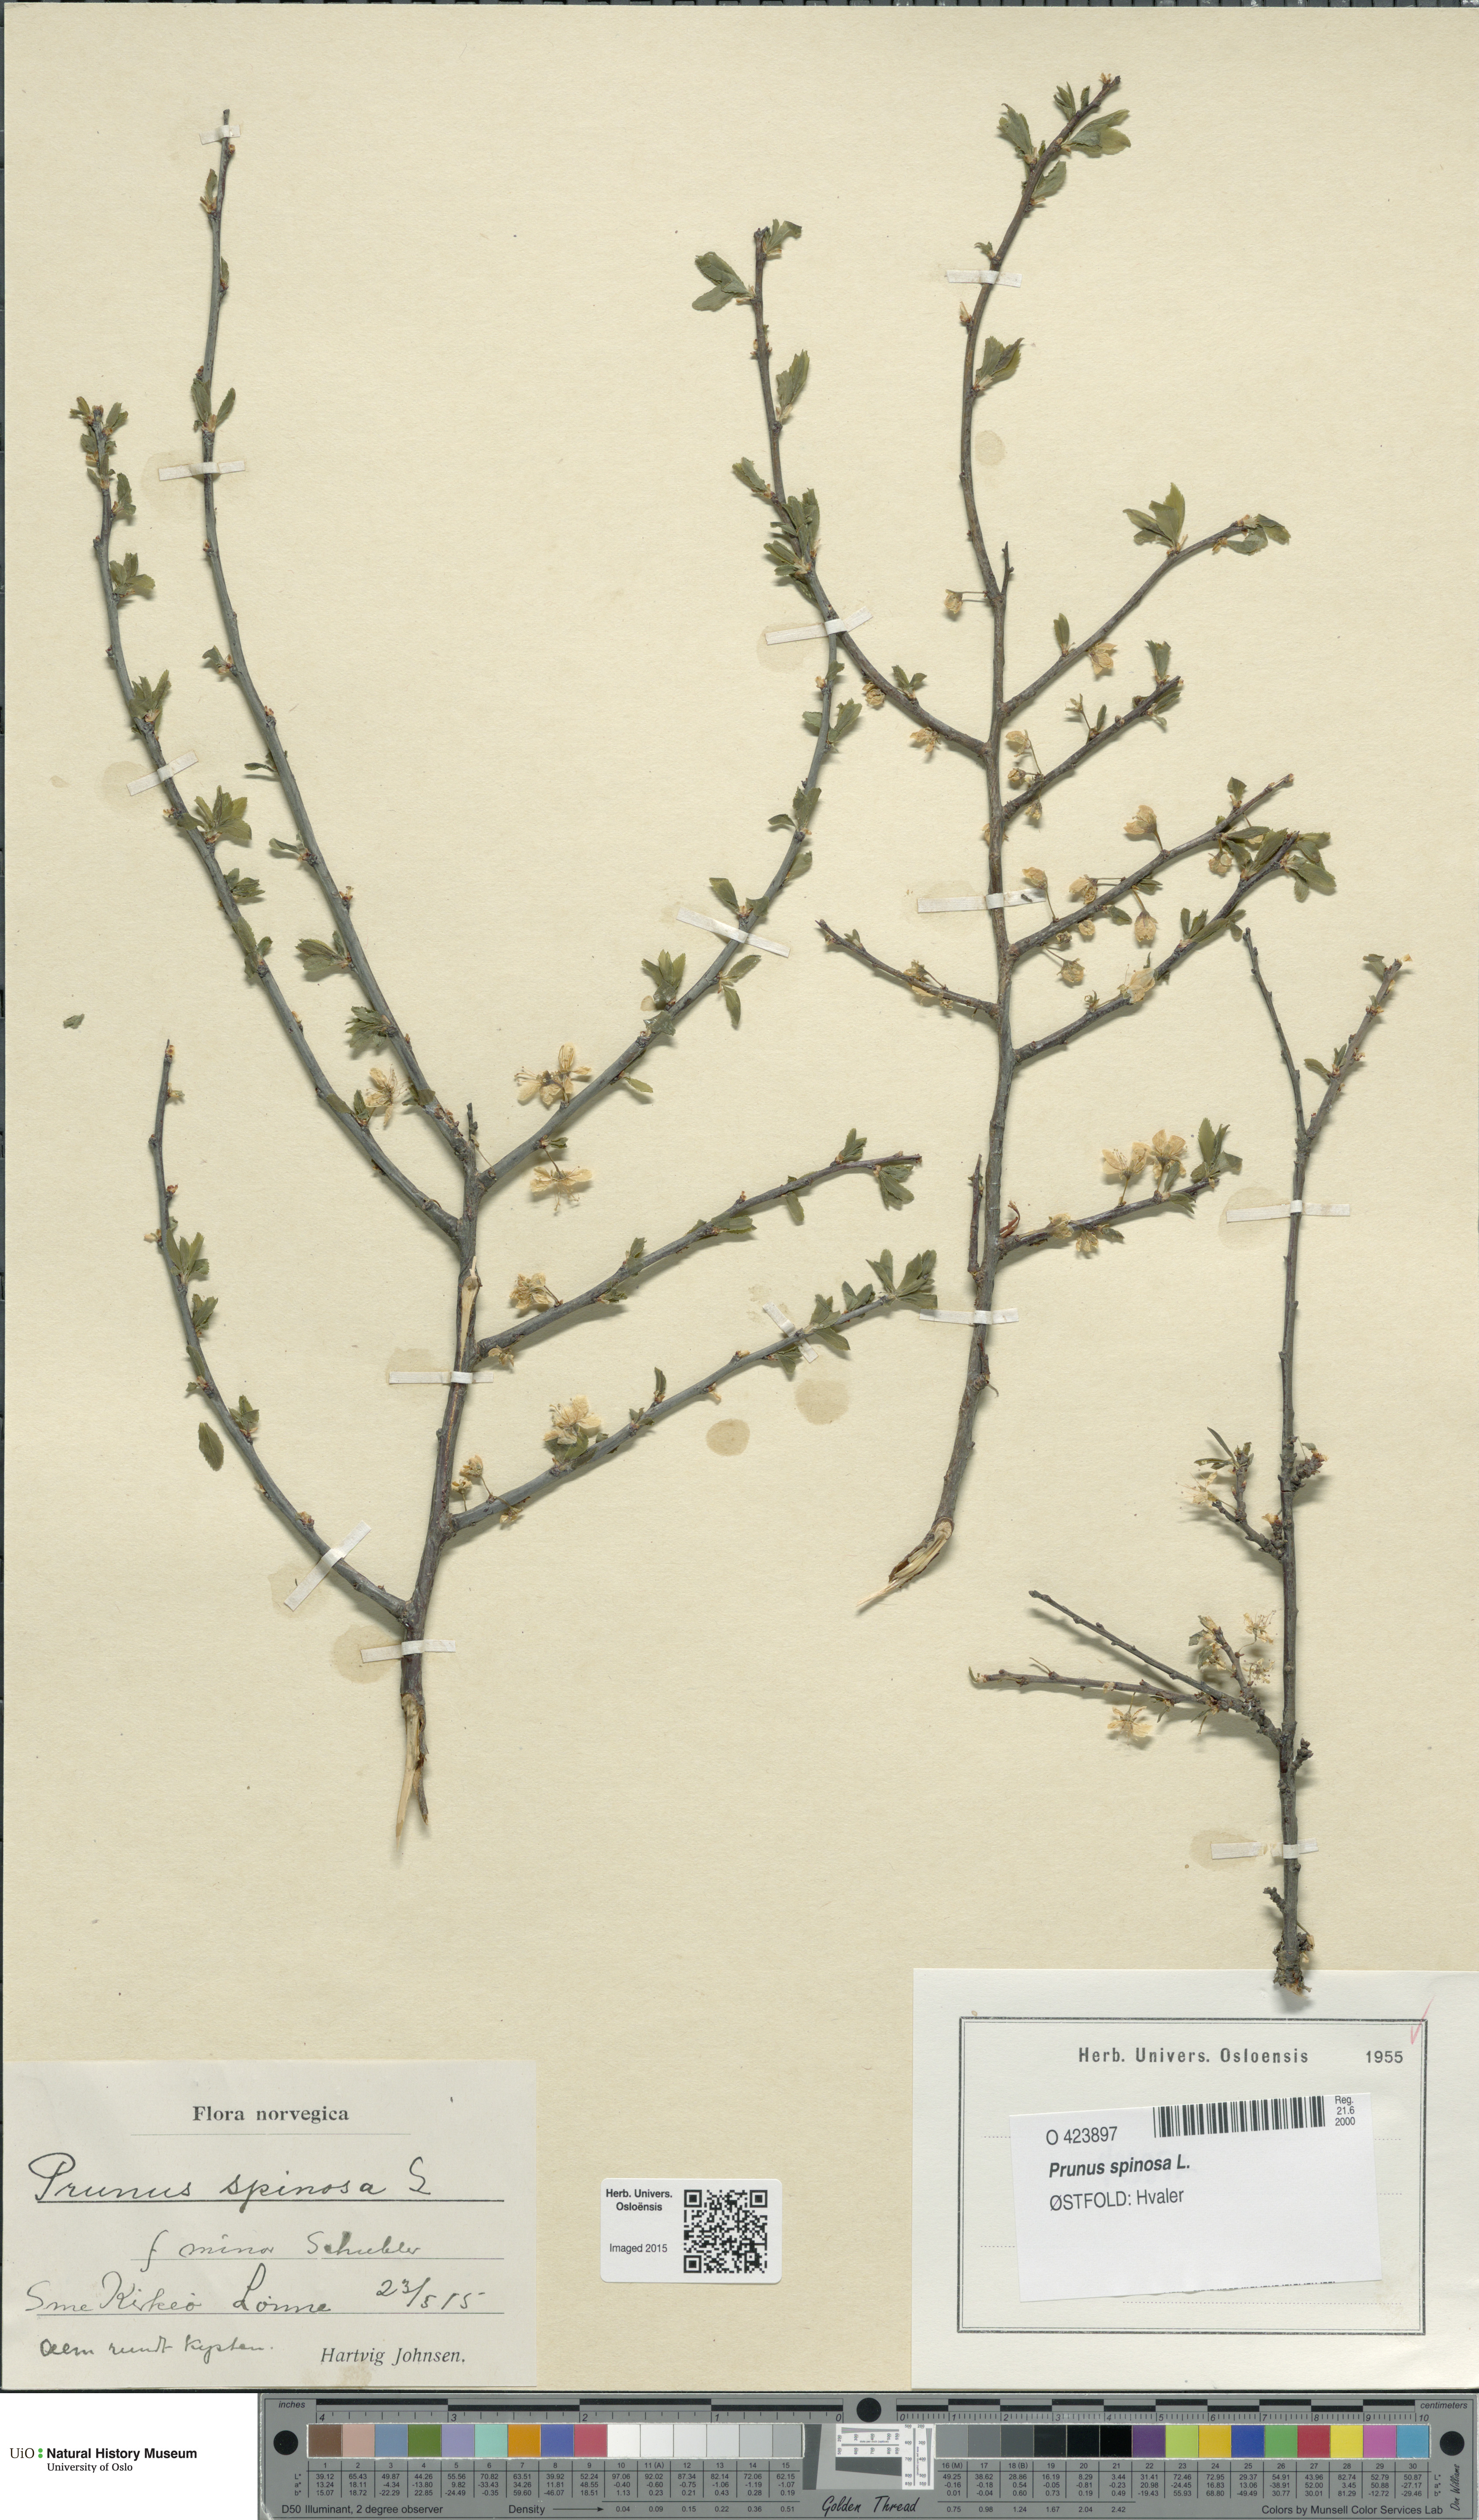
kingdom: Plantae
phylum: Tracheophyta
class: Magnoliopsida
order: Rosales
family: Rosaceae
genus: Prunus
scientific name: Prunus spinosa
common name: Blackthorn
